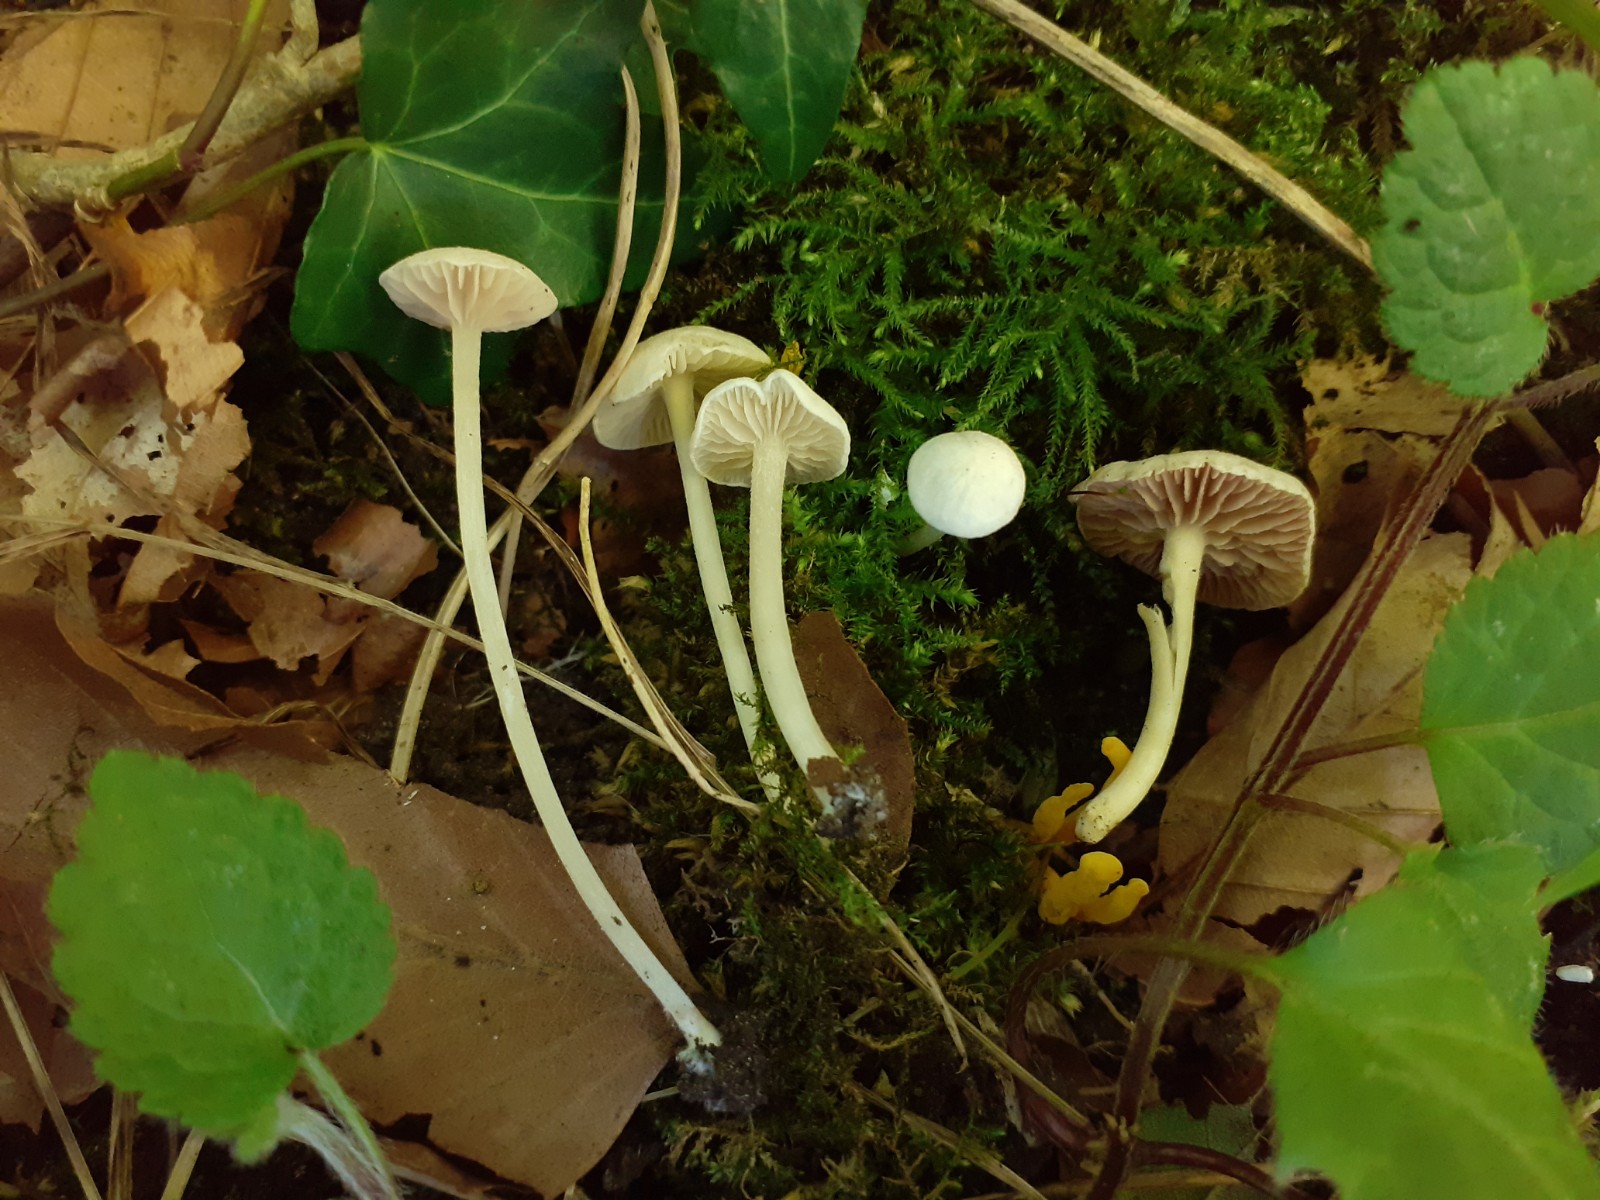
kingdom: Fungi
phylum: Basidiomycota
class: Agaricomycetes
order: Agaricales
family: Entolomataceae
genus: Entoloma
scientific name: Entoloma pleopodium
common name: duftende rødblad
